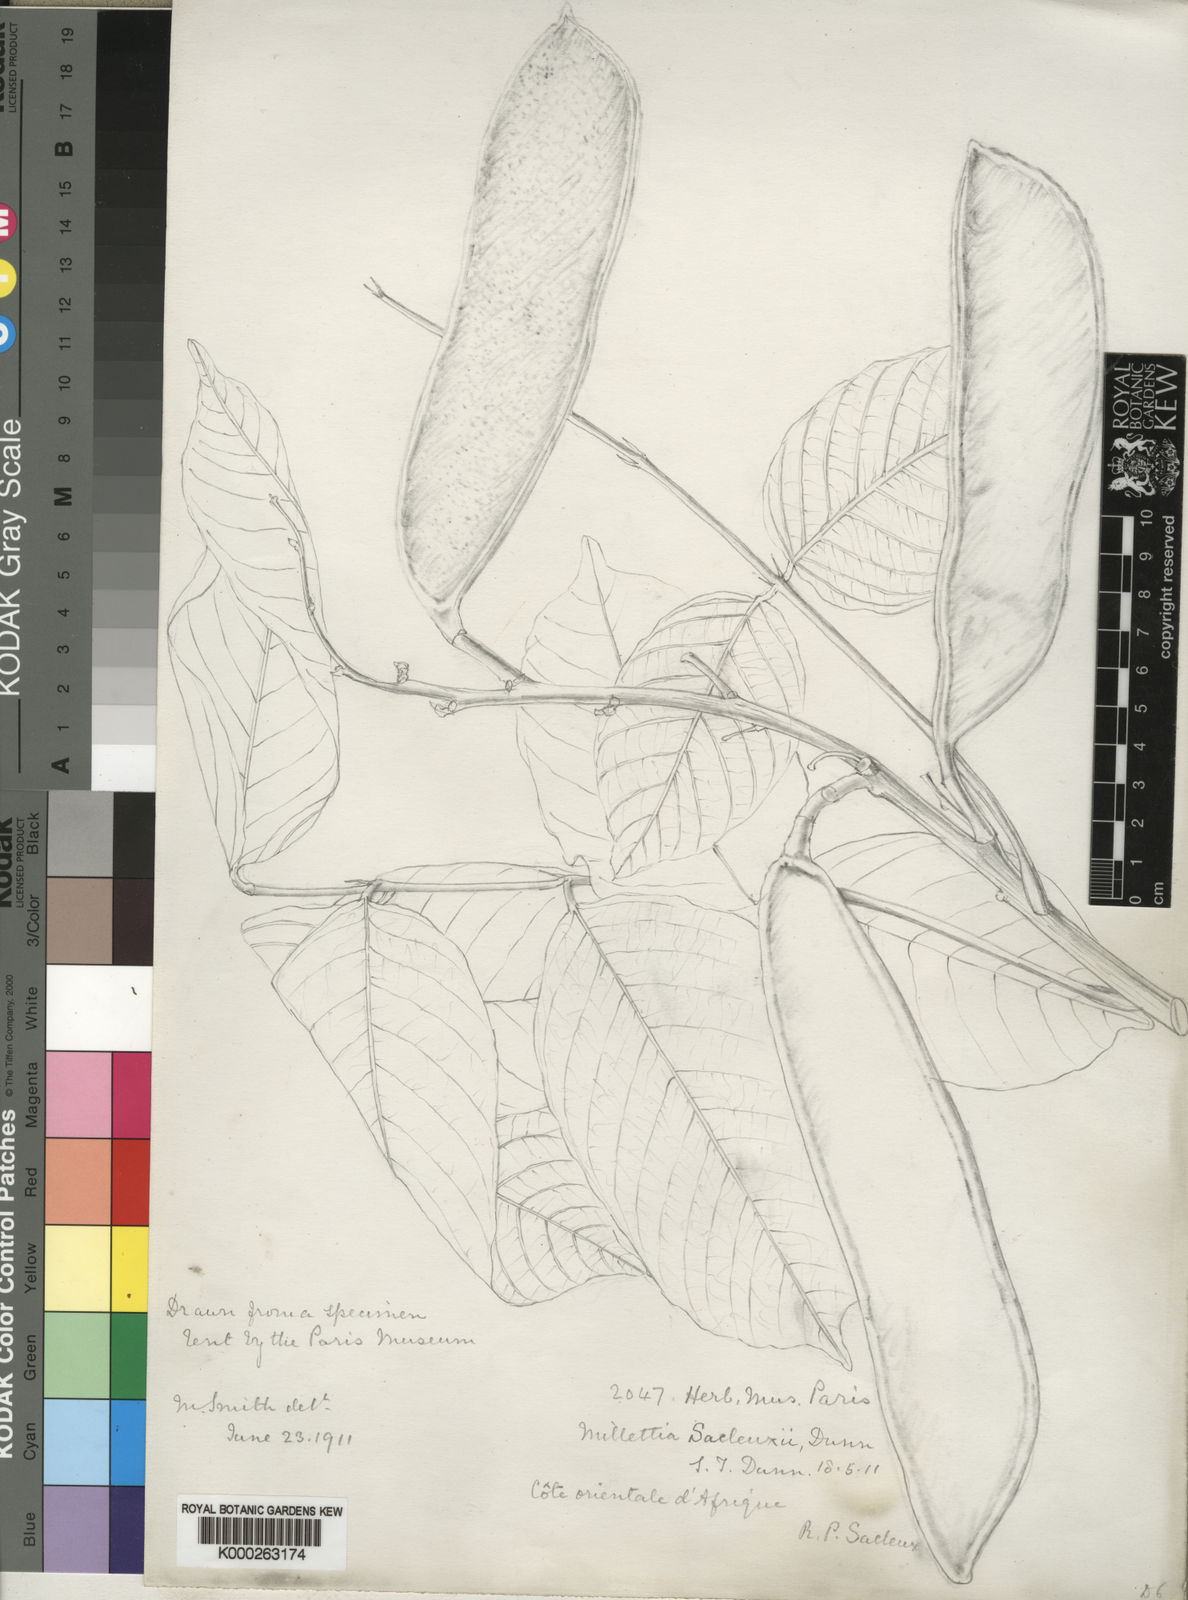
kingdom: Plantae
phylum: Tracheophyta
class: Magnoliopsida
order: Fabales
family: Fabaceae
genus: Millettia
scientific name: Millettia sacleuxii
